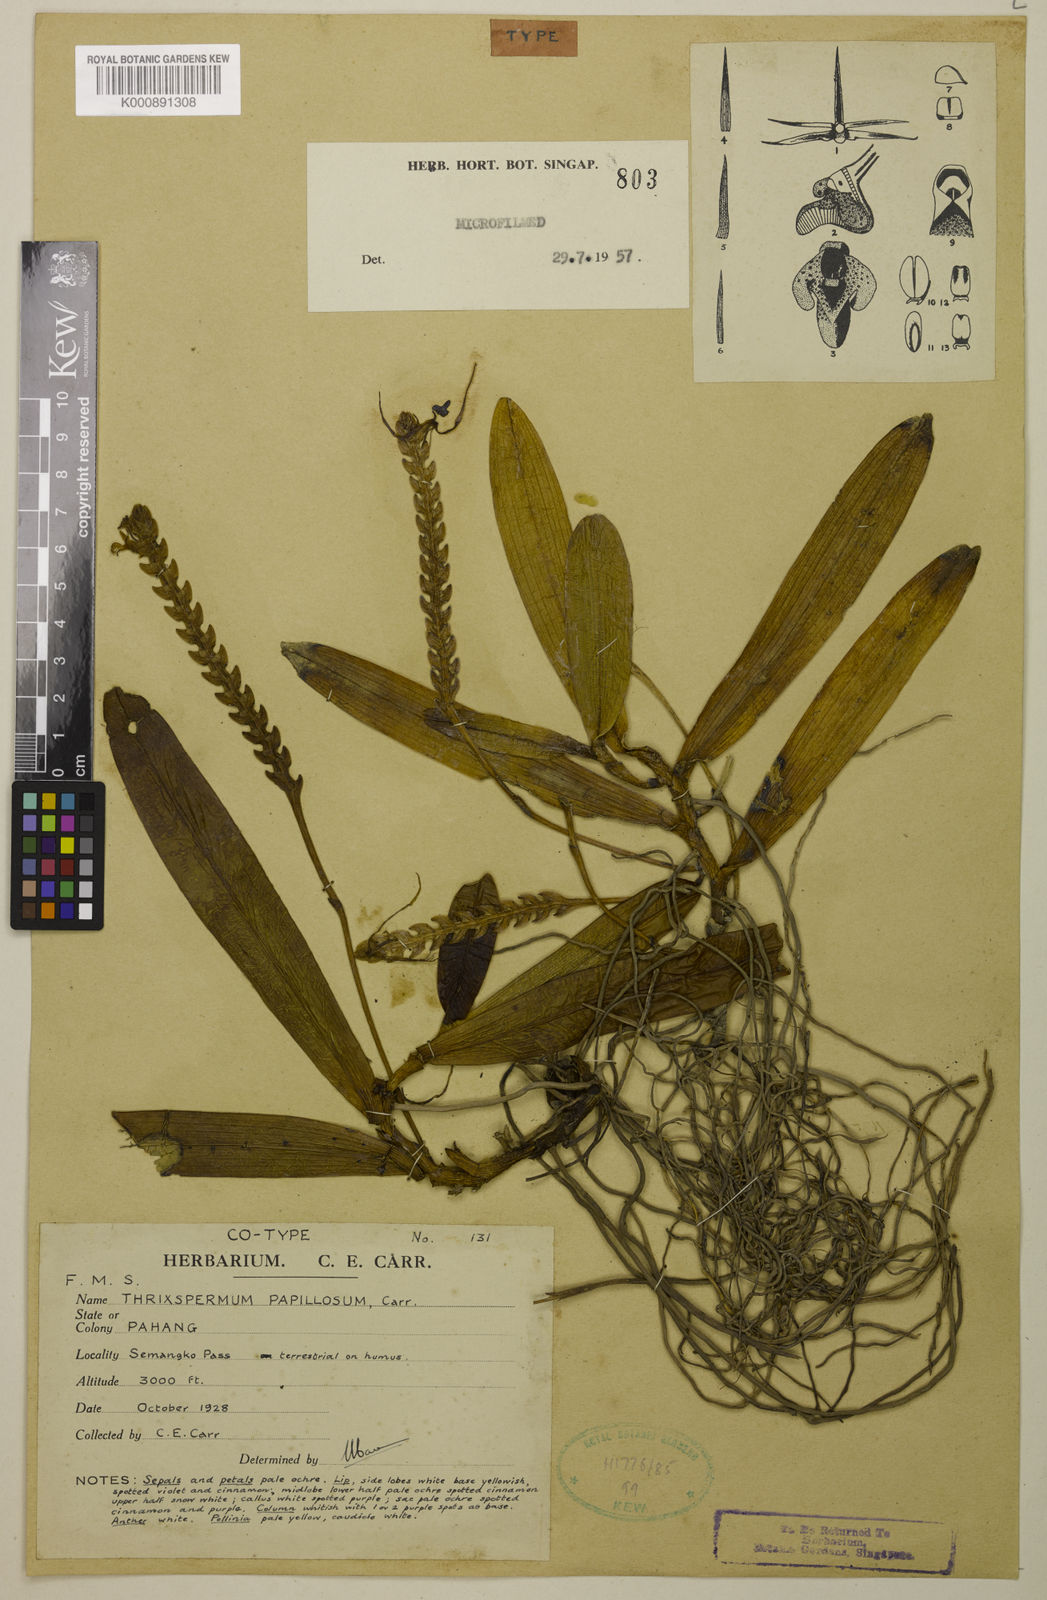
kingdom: Plantae
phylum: Tracheophyta
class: Liliopsida
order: Asparagales
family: Orchidaceae
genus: Thrixspermum
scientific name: Thrixspermum centipeda
